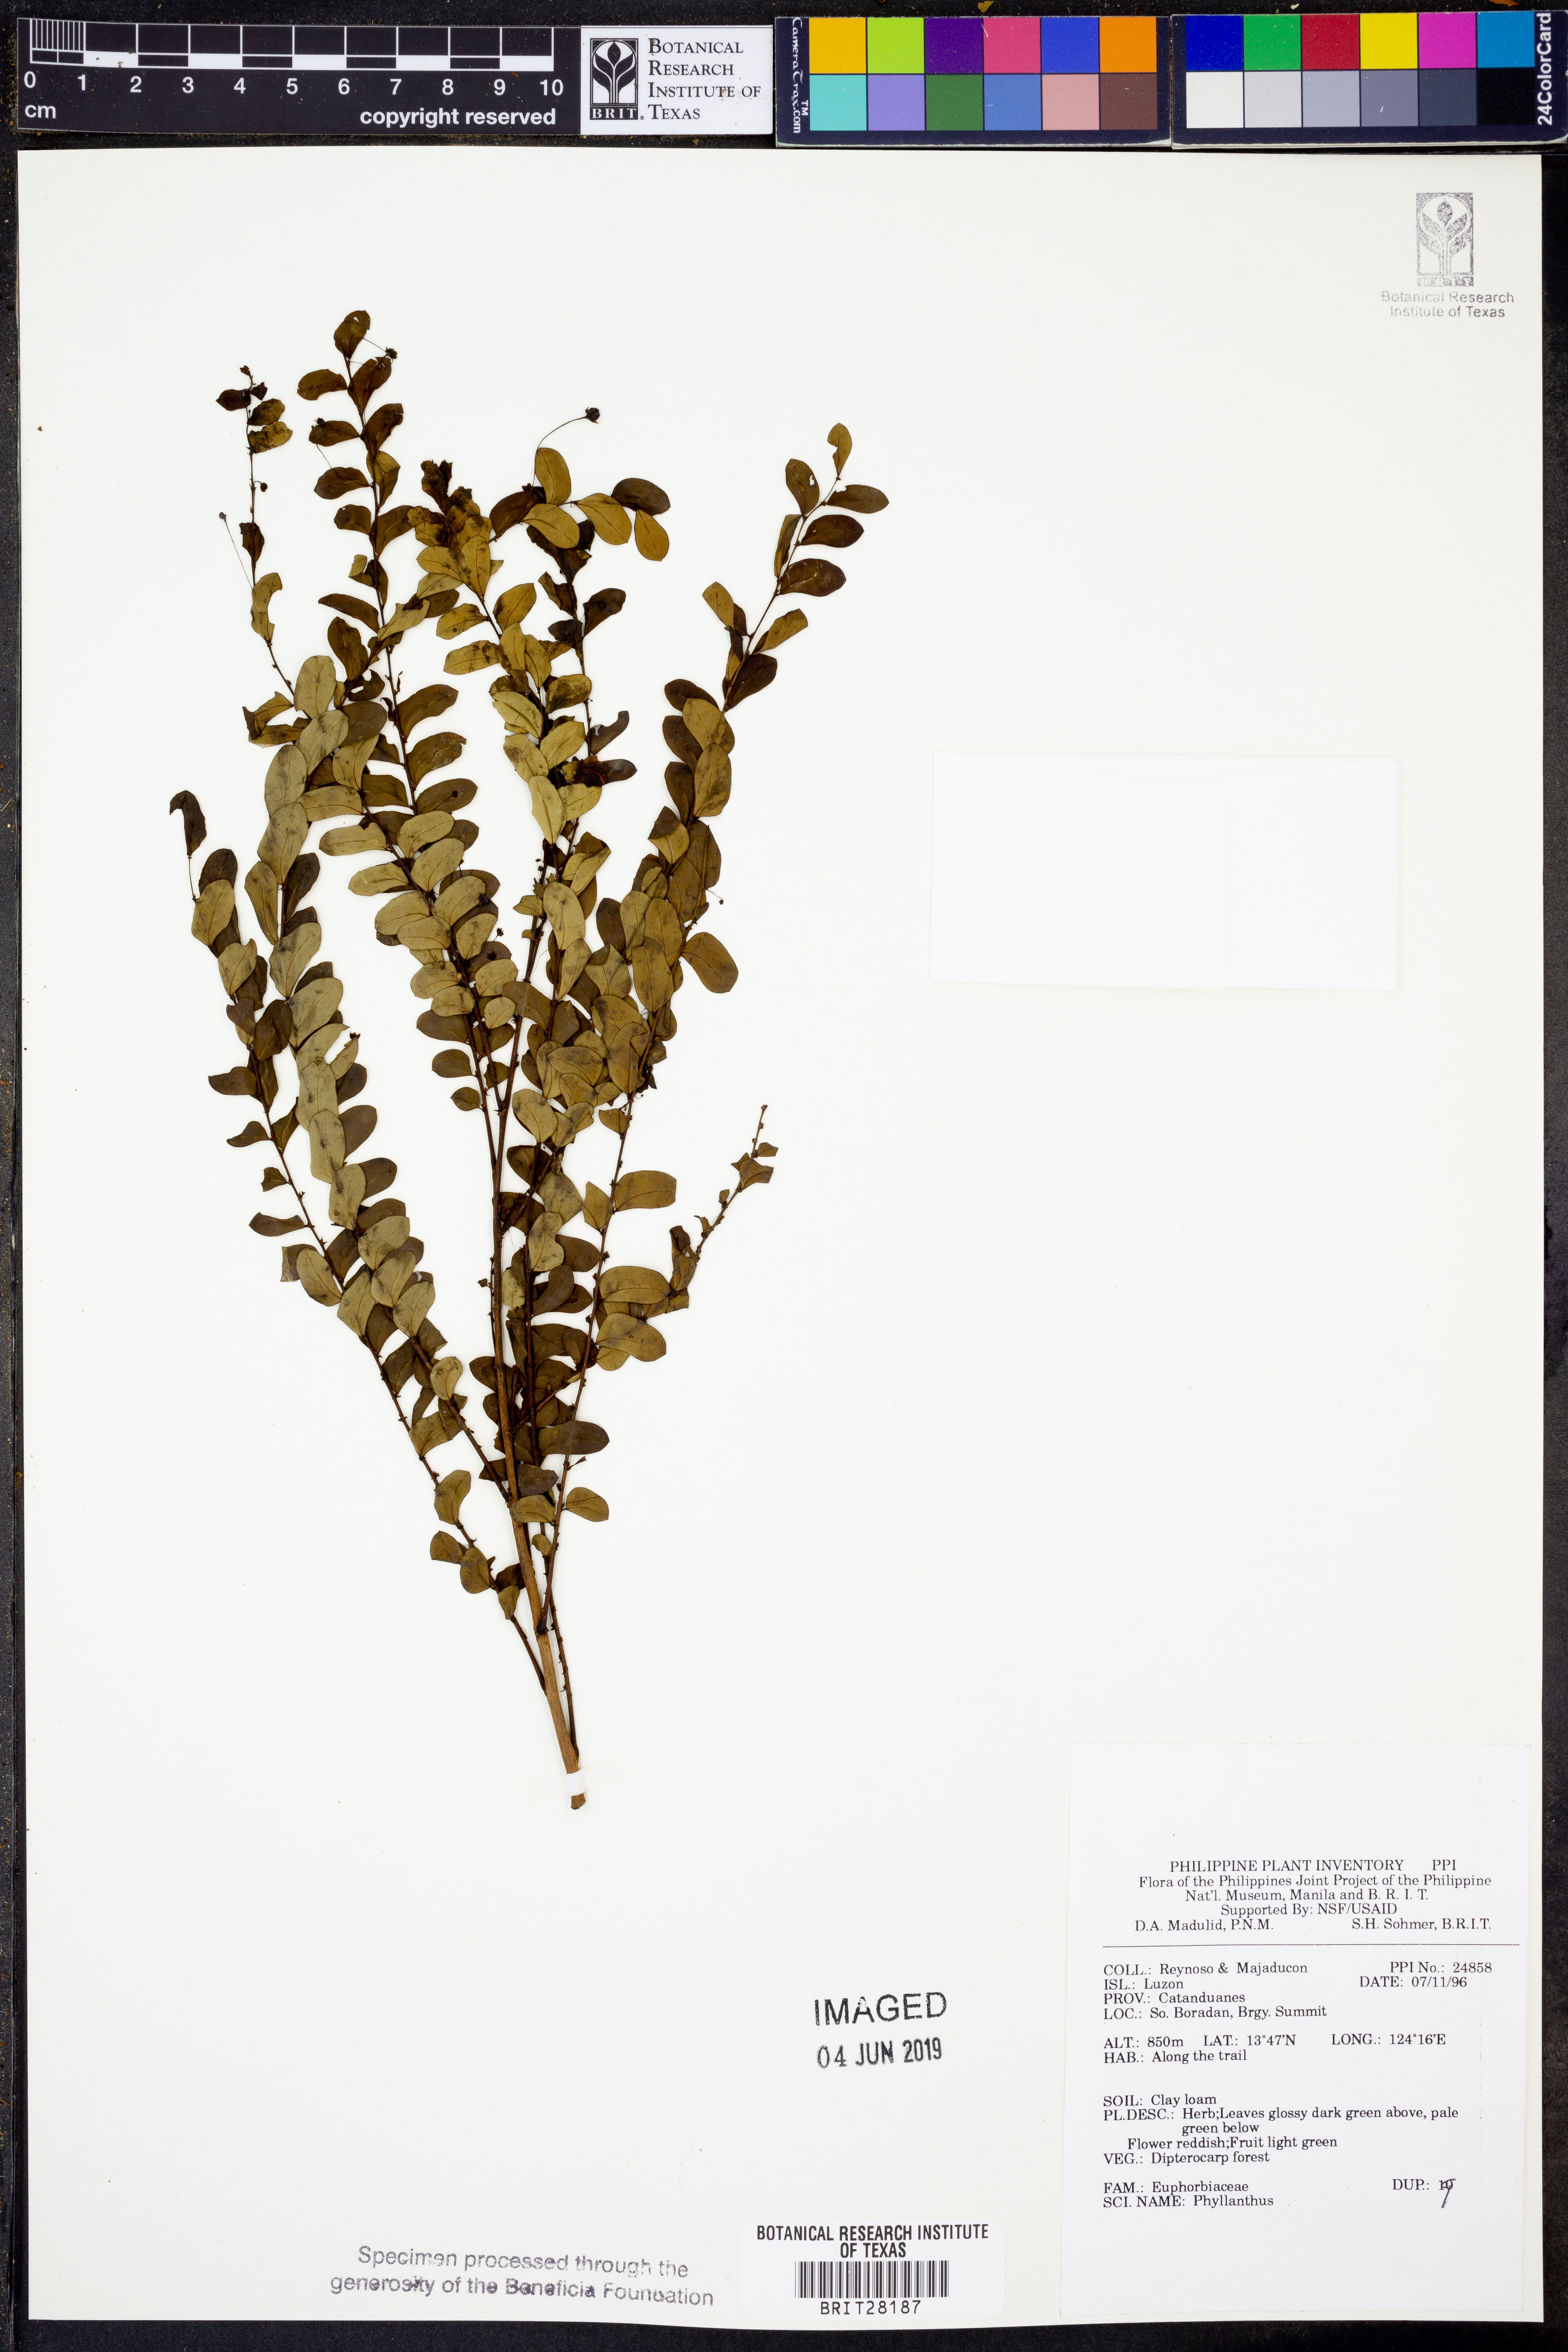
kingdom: Plantae
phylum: Tracheophyta
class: Magnoliopsida
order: Malpighiales
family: Phyllanthaceae
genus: Phyllanthus
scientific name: Phyllanthus
